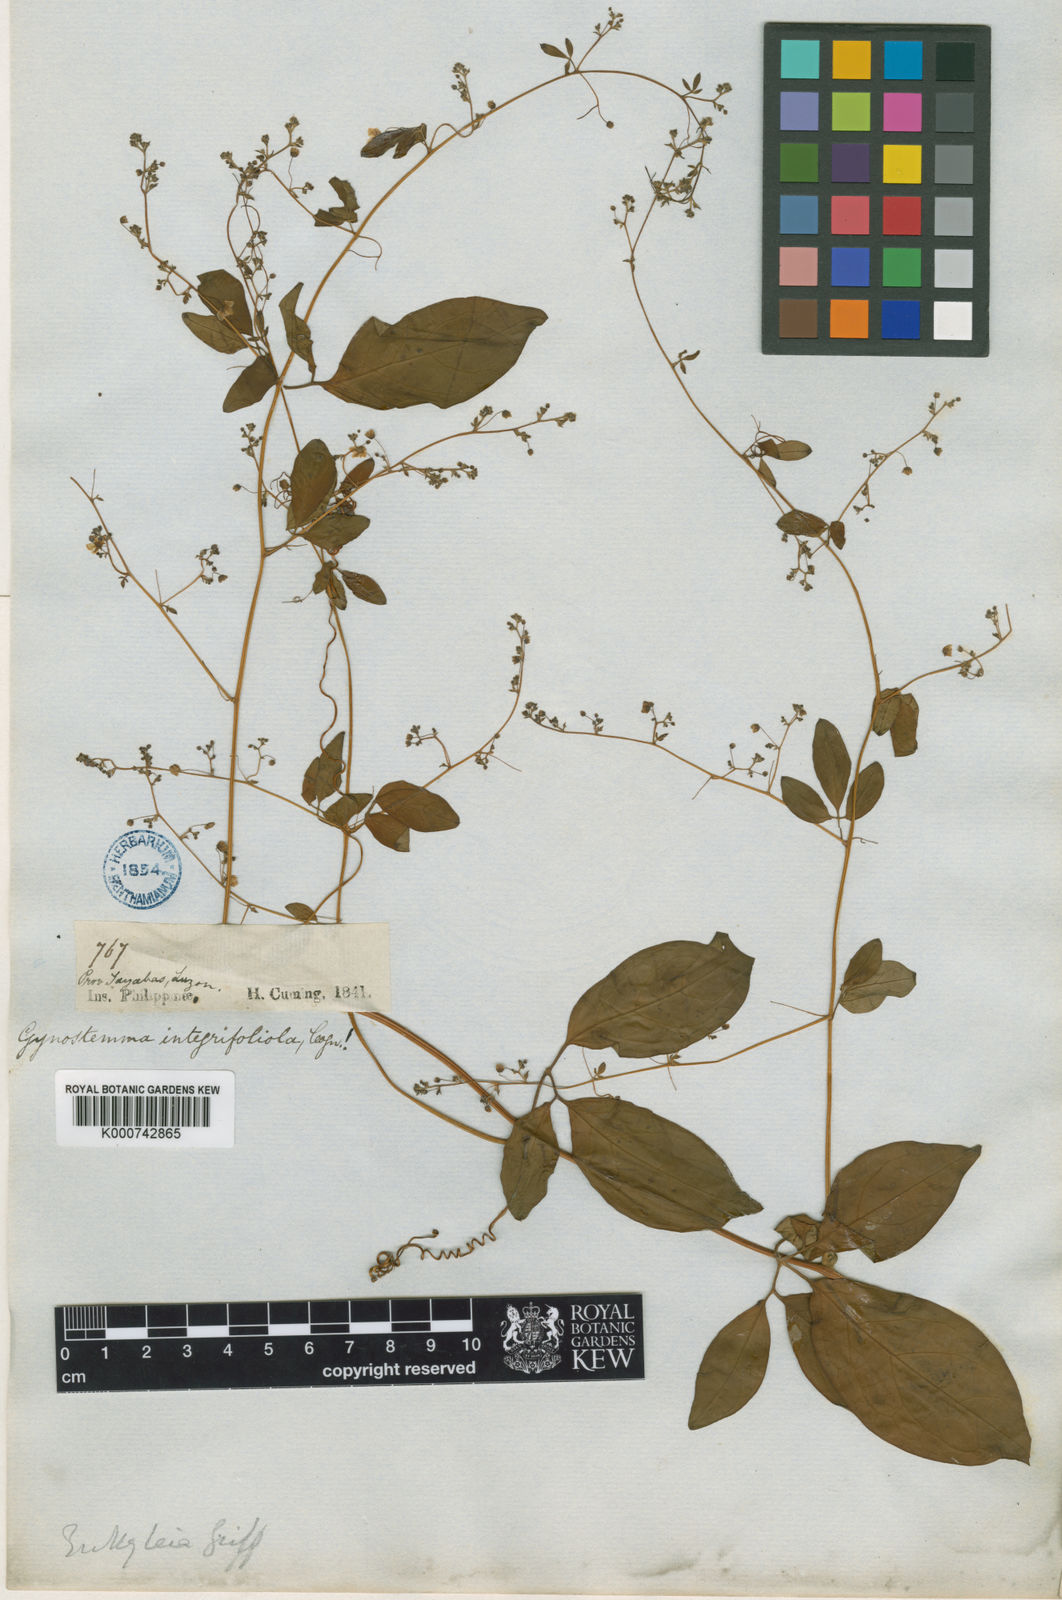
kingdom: Plantae
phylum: Tracheophyta
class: Magnoliopsida
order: Cucurbitales
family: Cucurbitaceae
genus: Neoalsomitra
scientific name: Neoalsomitra
